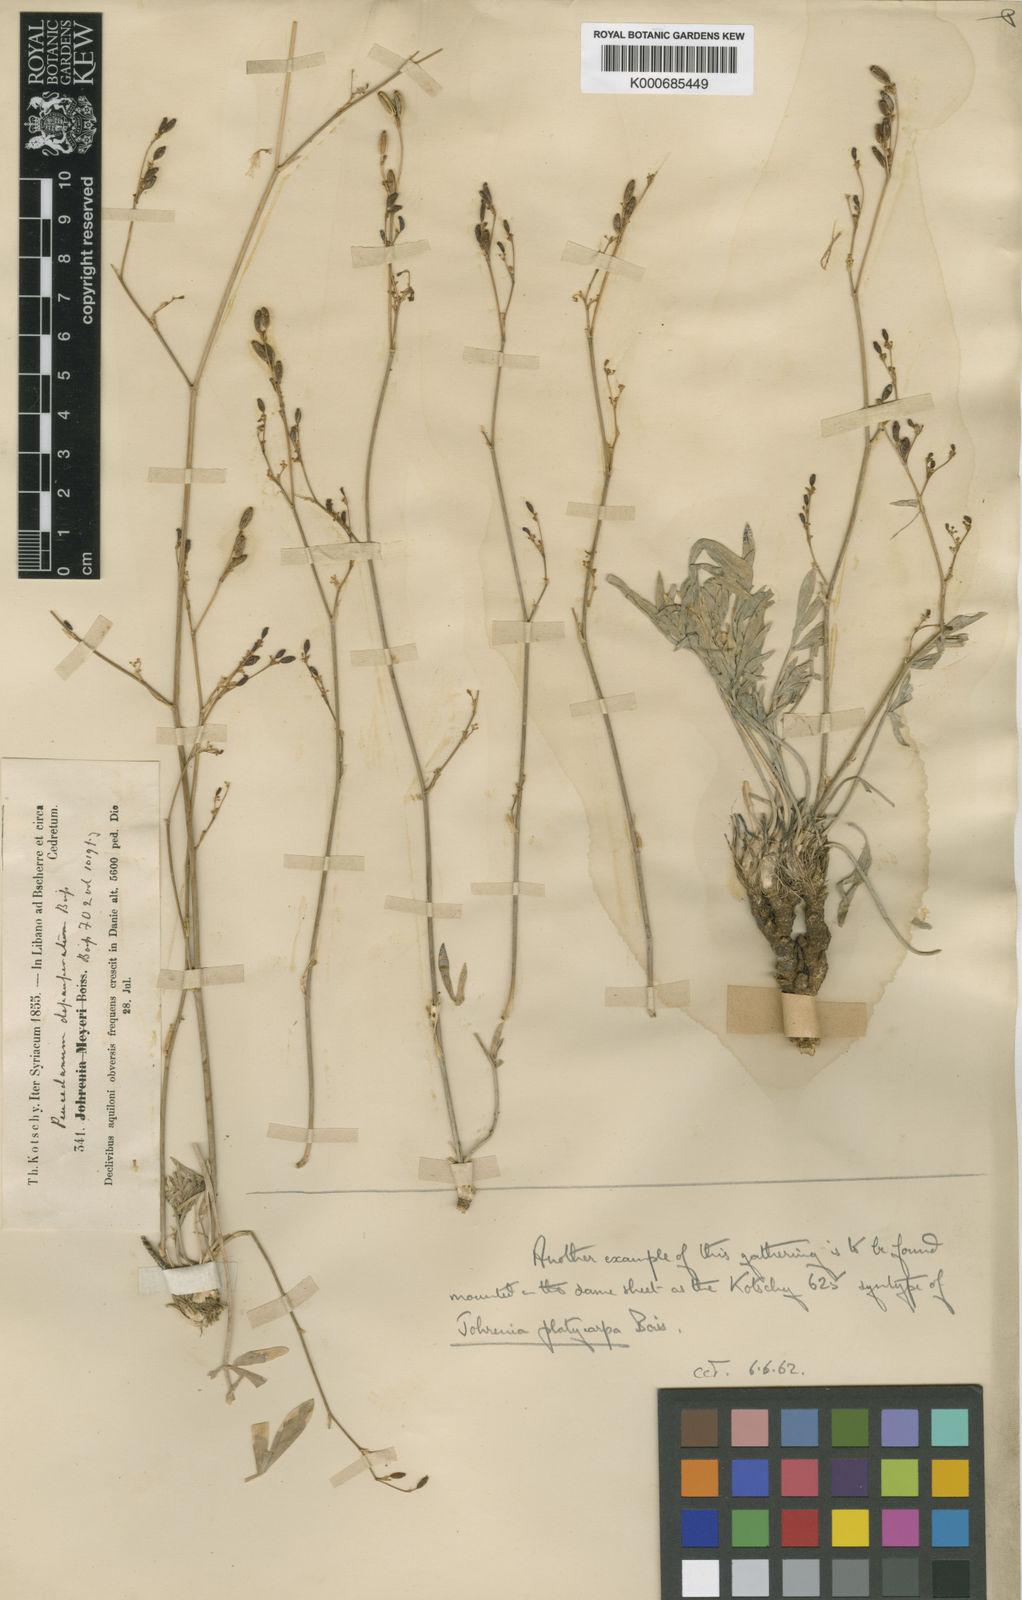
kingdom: Plantae
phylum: Tracheophyta
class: Magnoliopsida
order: Apiales
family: Apiaceae
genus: Dichoropetalum
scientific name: Dichoropetalum depauperatum
